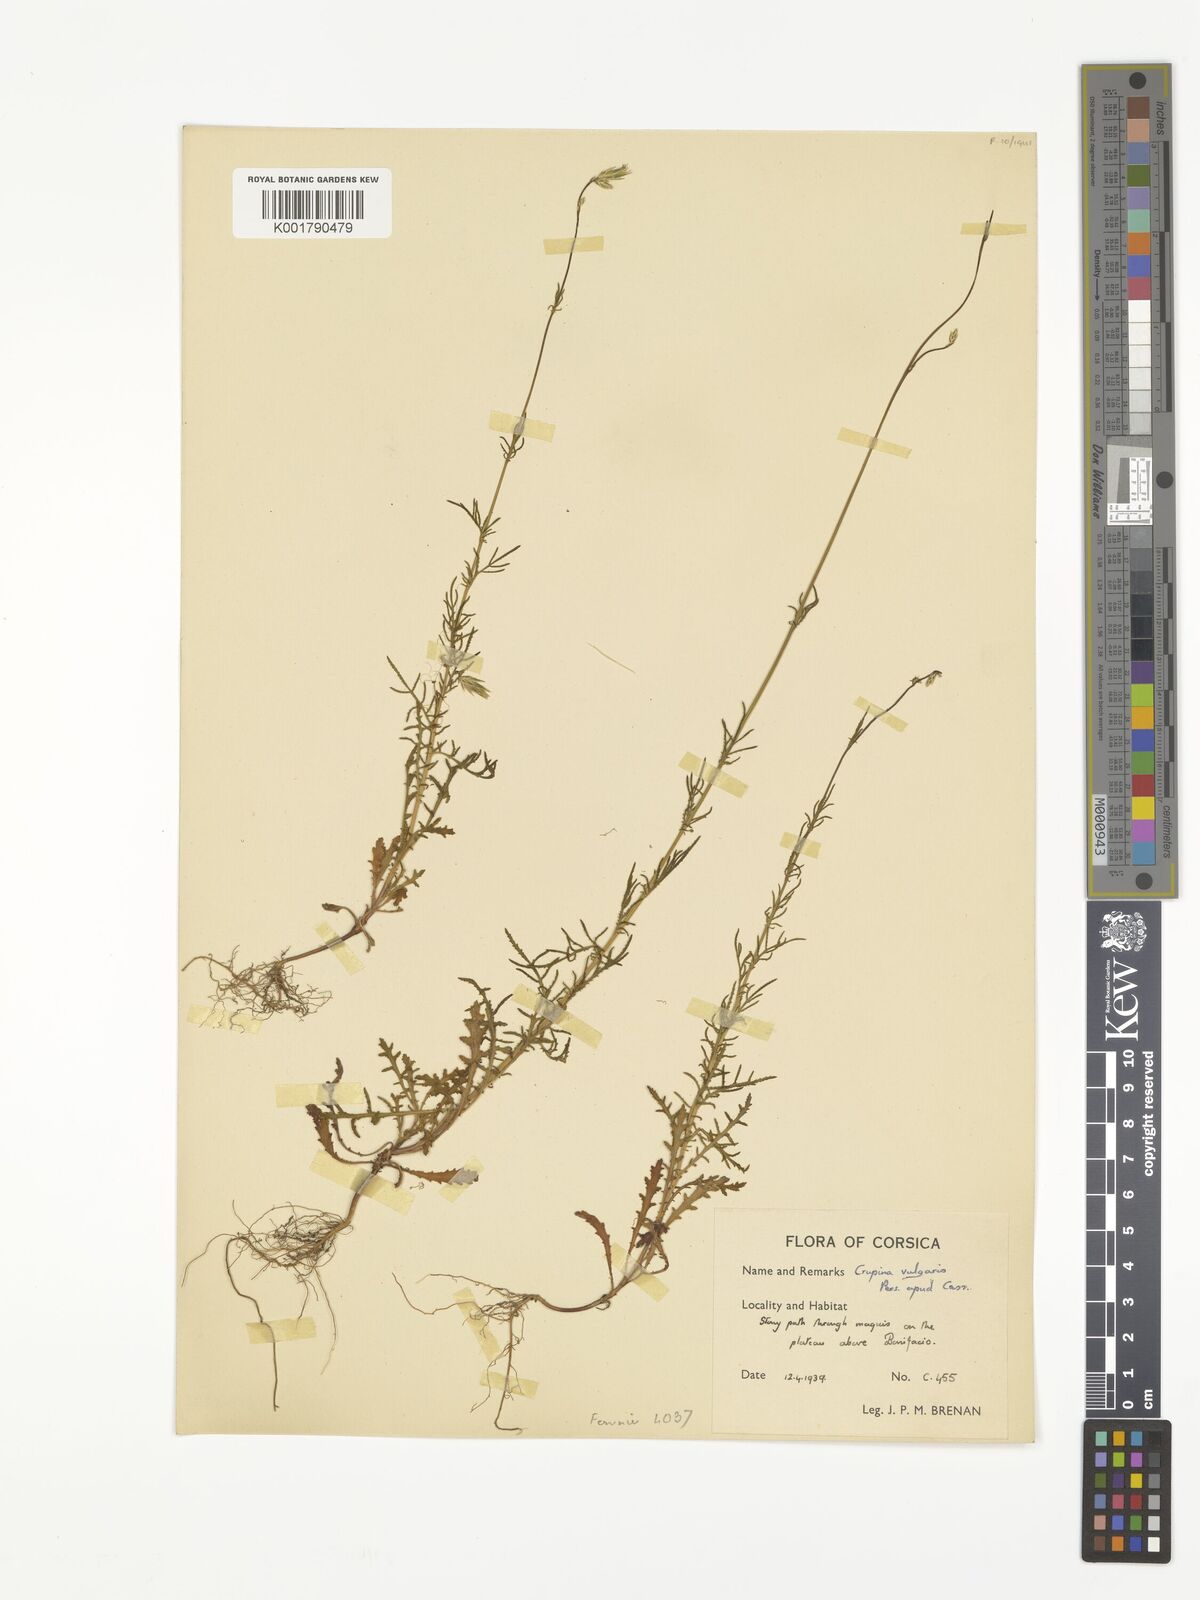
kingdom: Plantae
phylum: Tracheophyta
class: Magnoliopsida
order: Asterales
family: Asteraceae
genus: Crupina
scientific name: Crupina vulgaris
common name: Common crupina
